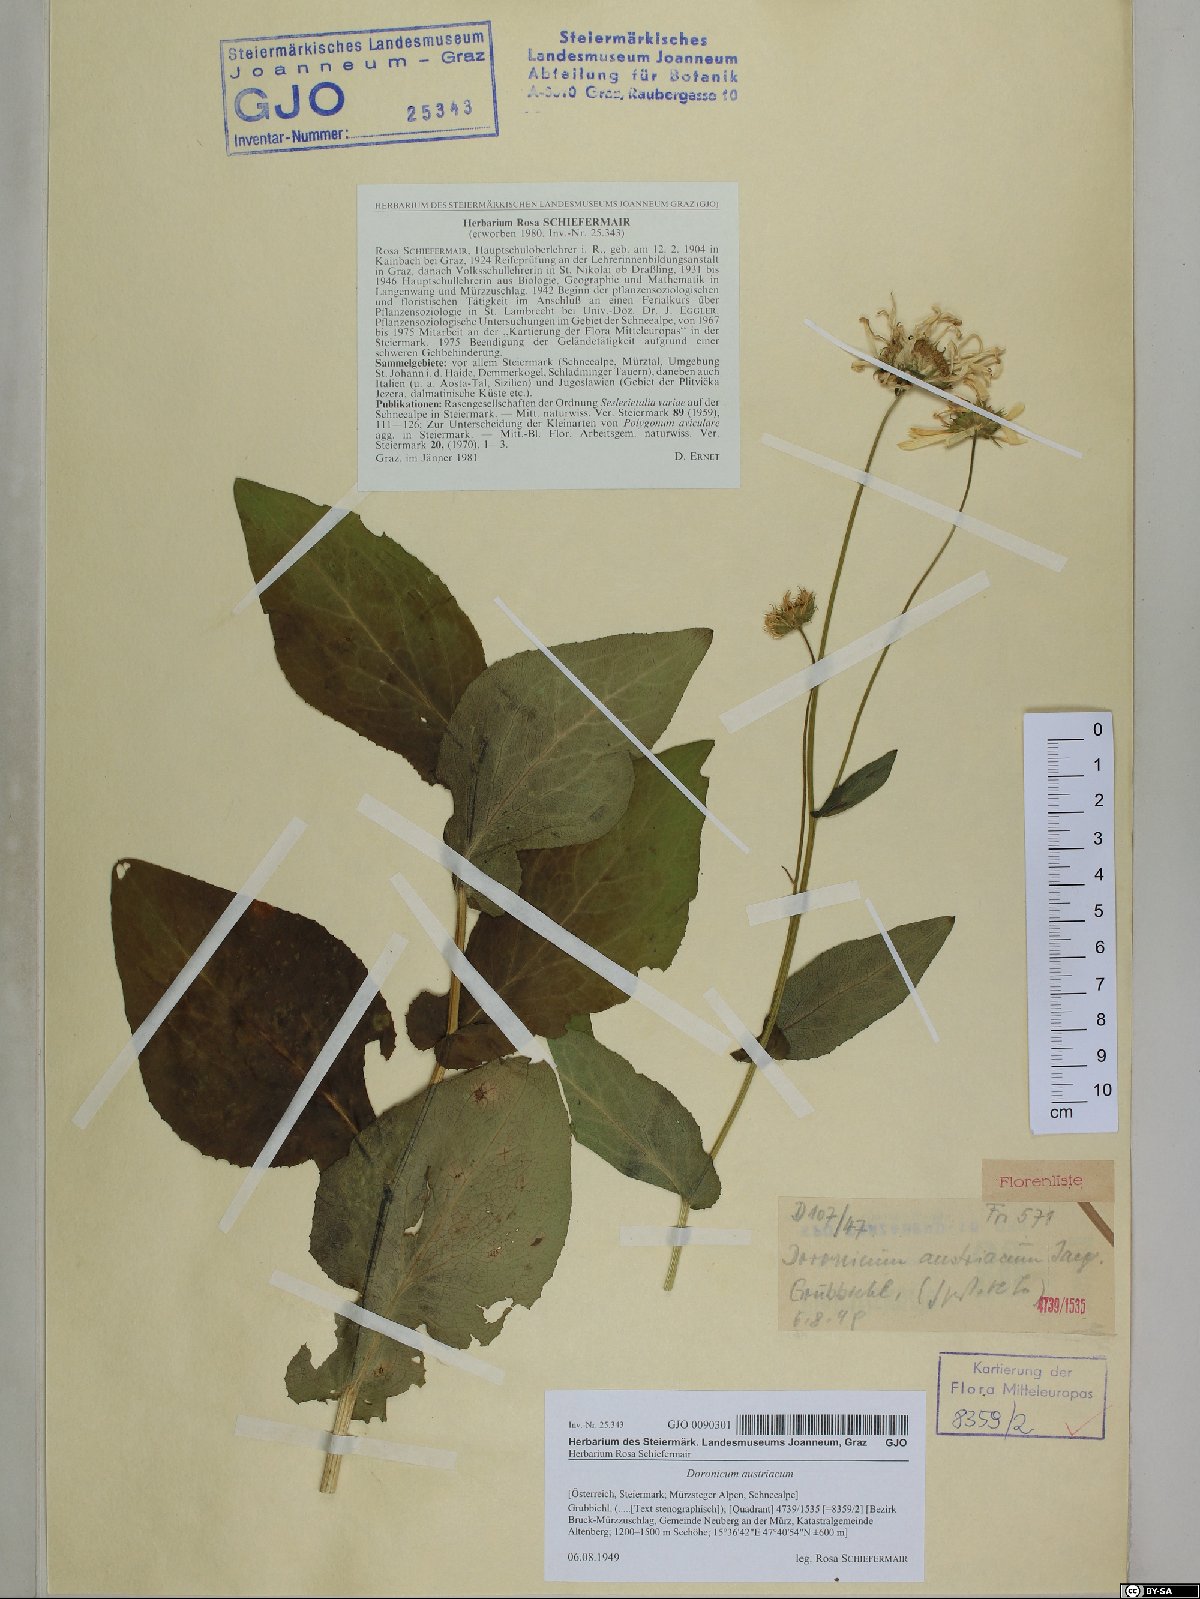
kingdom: Plantae
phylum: Tracheophyta
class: Magnoliopsida
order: Asterales
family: Asteraceae
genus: Doronicum
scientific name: Doronicum austriacum
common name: Austrian leopard's-bane
